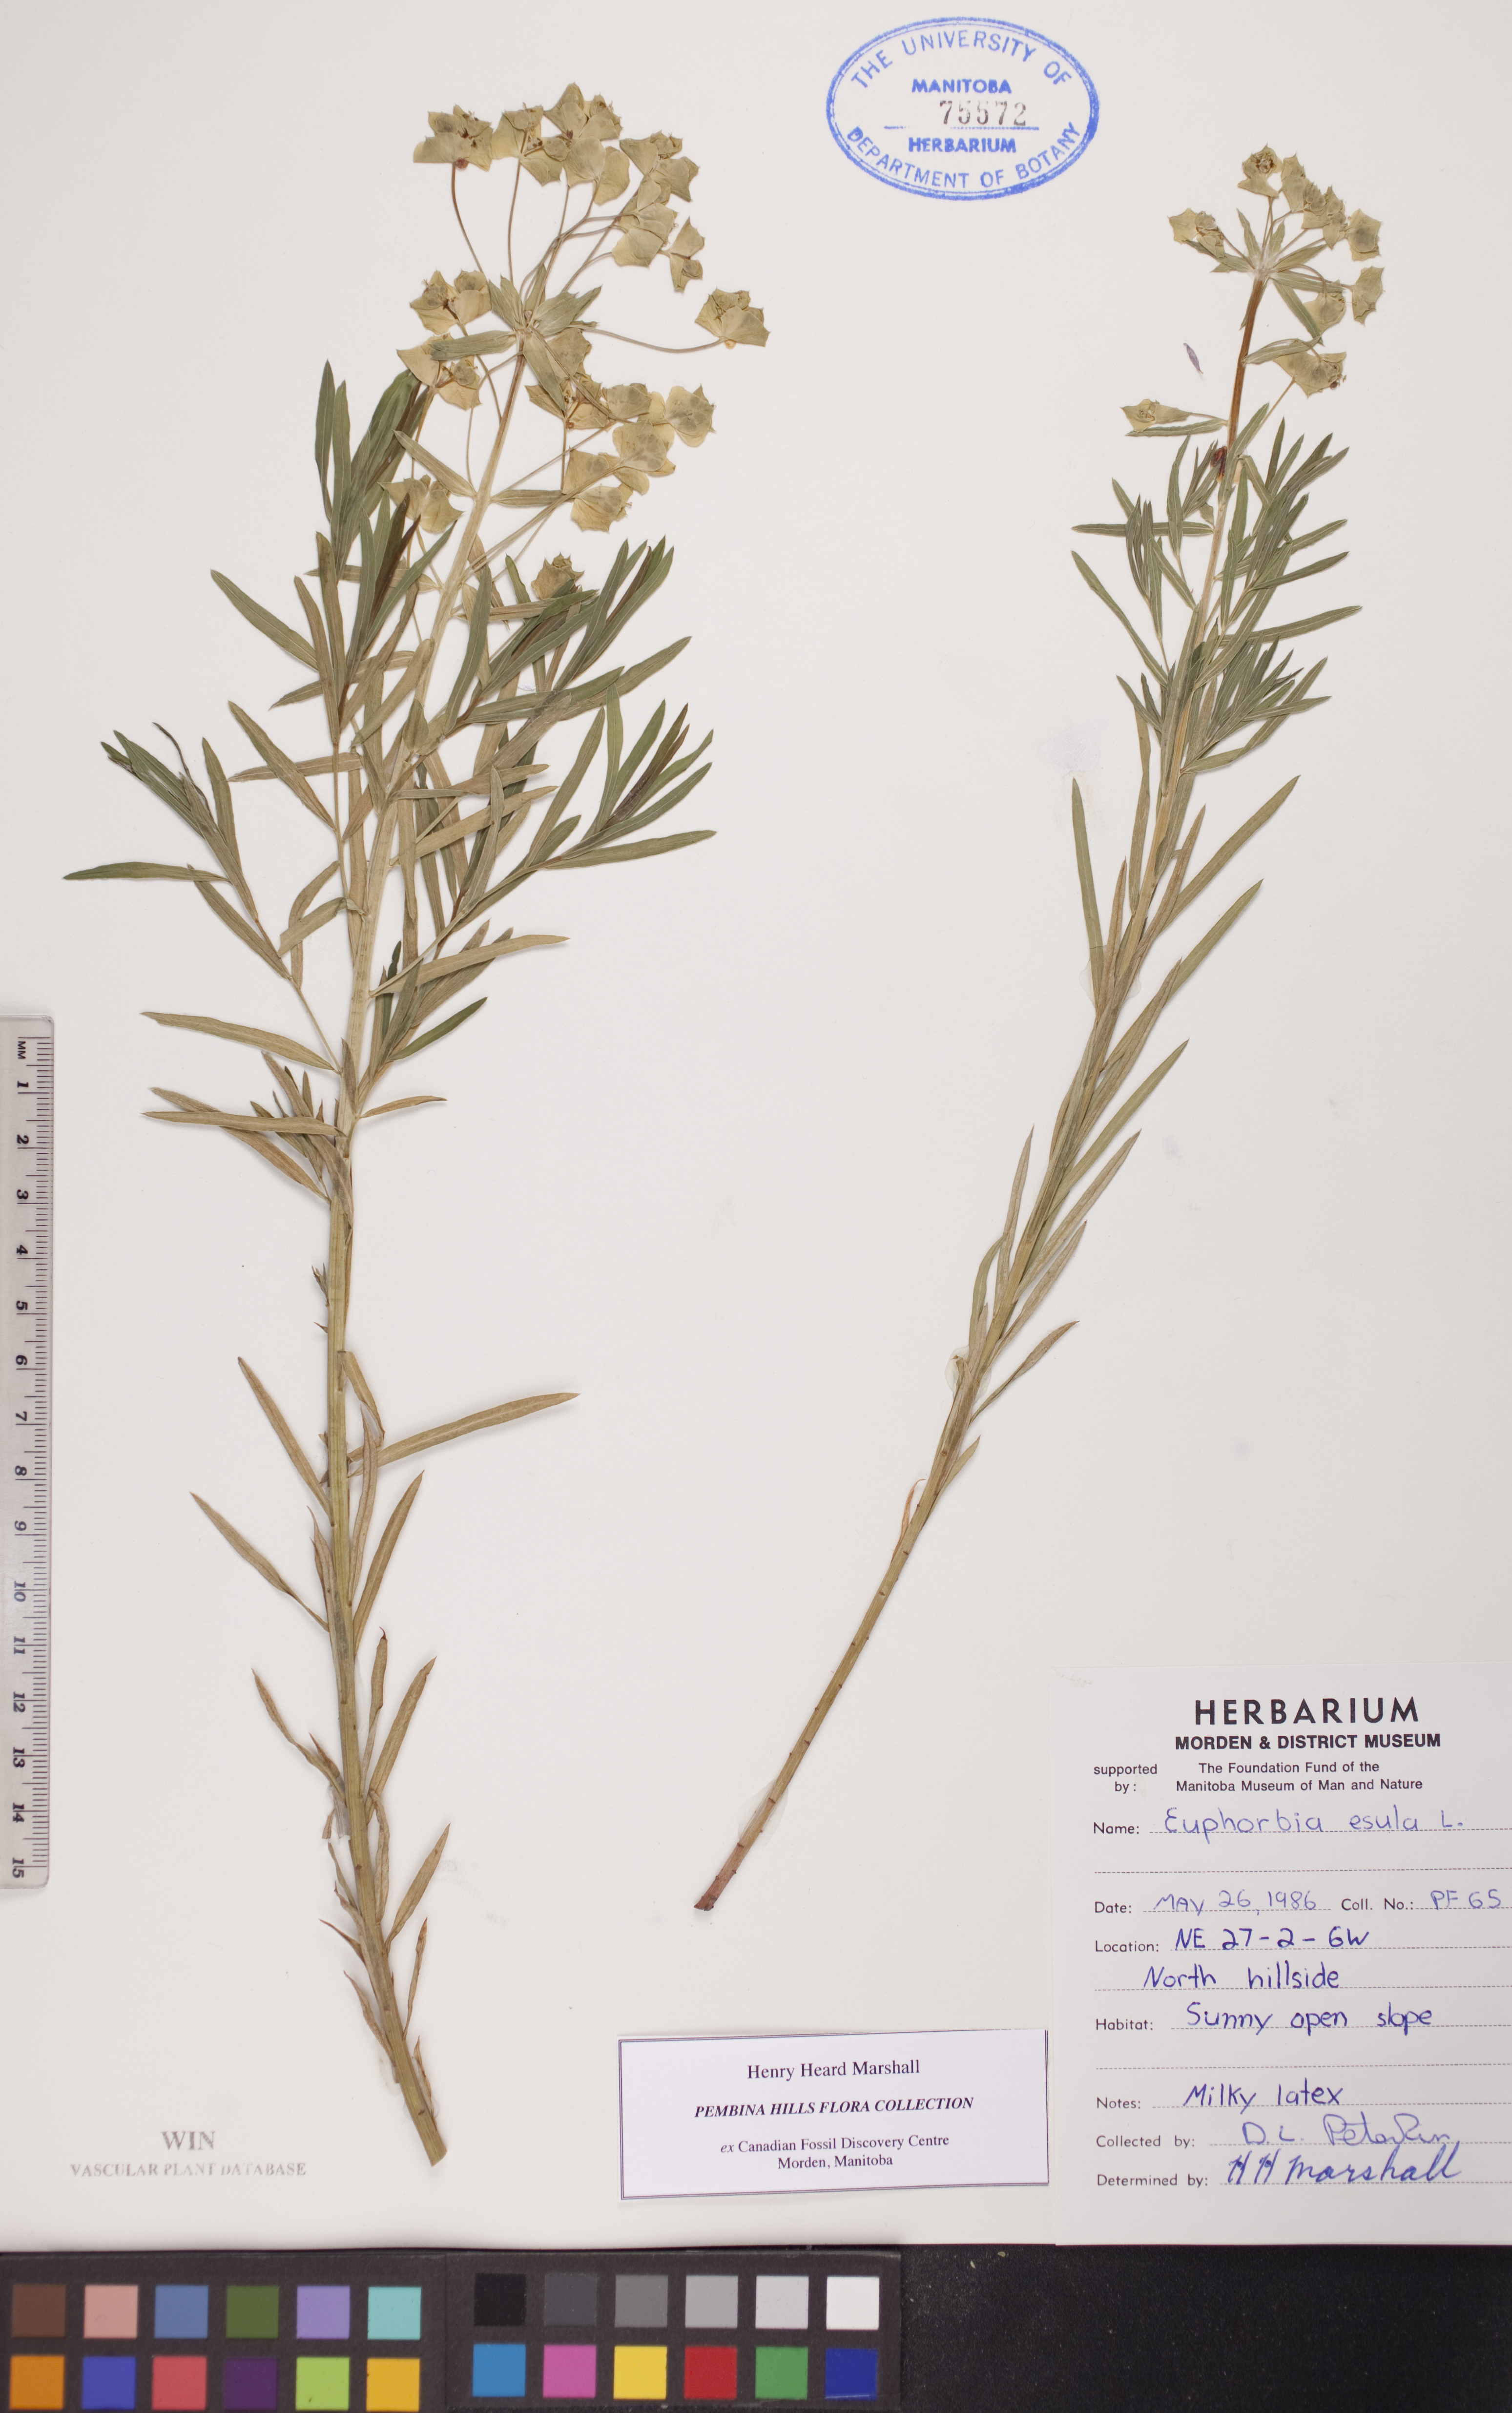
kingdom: Plantae
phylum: Tracheophyta
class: Magnoliopsida
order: Malpighiales
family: Euphorbiaceae
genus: Euphorbia
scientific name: Euphorbia esula
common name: Leafy spurge
